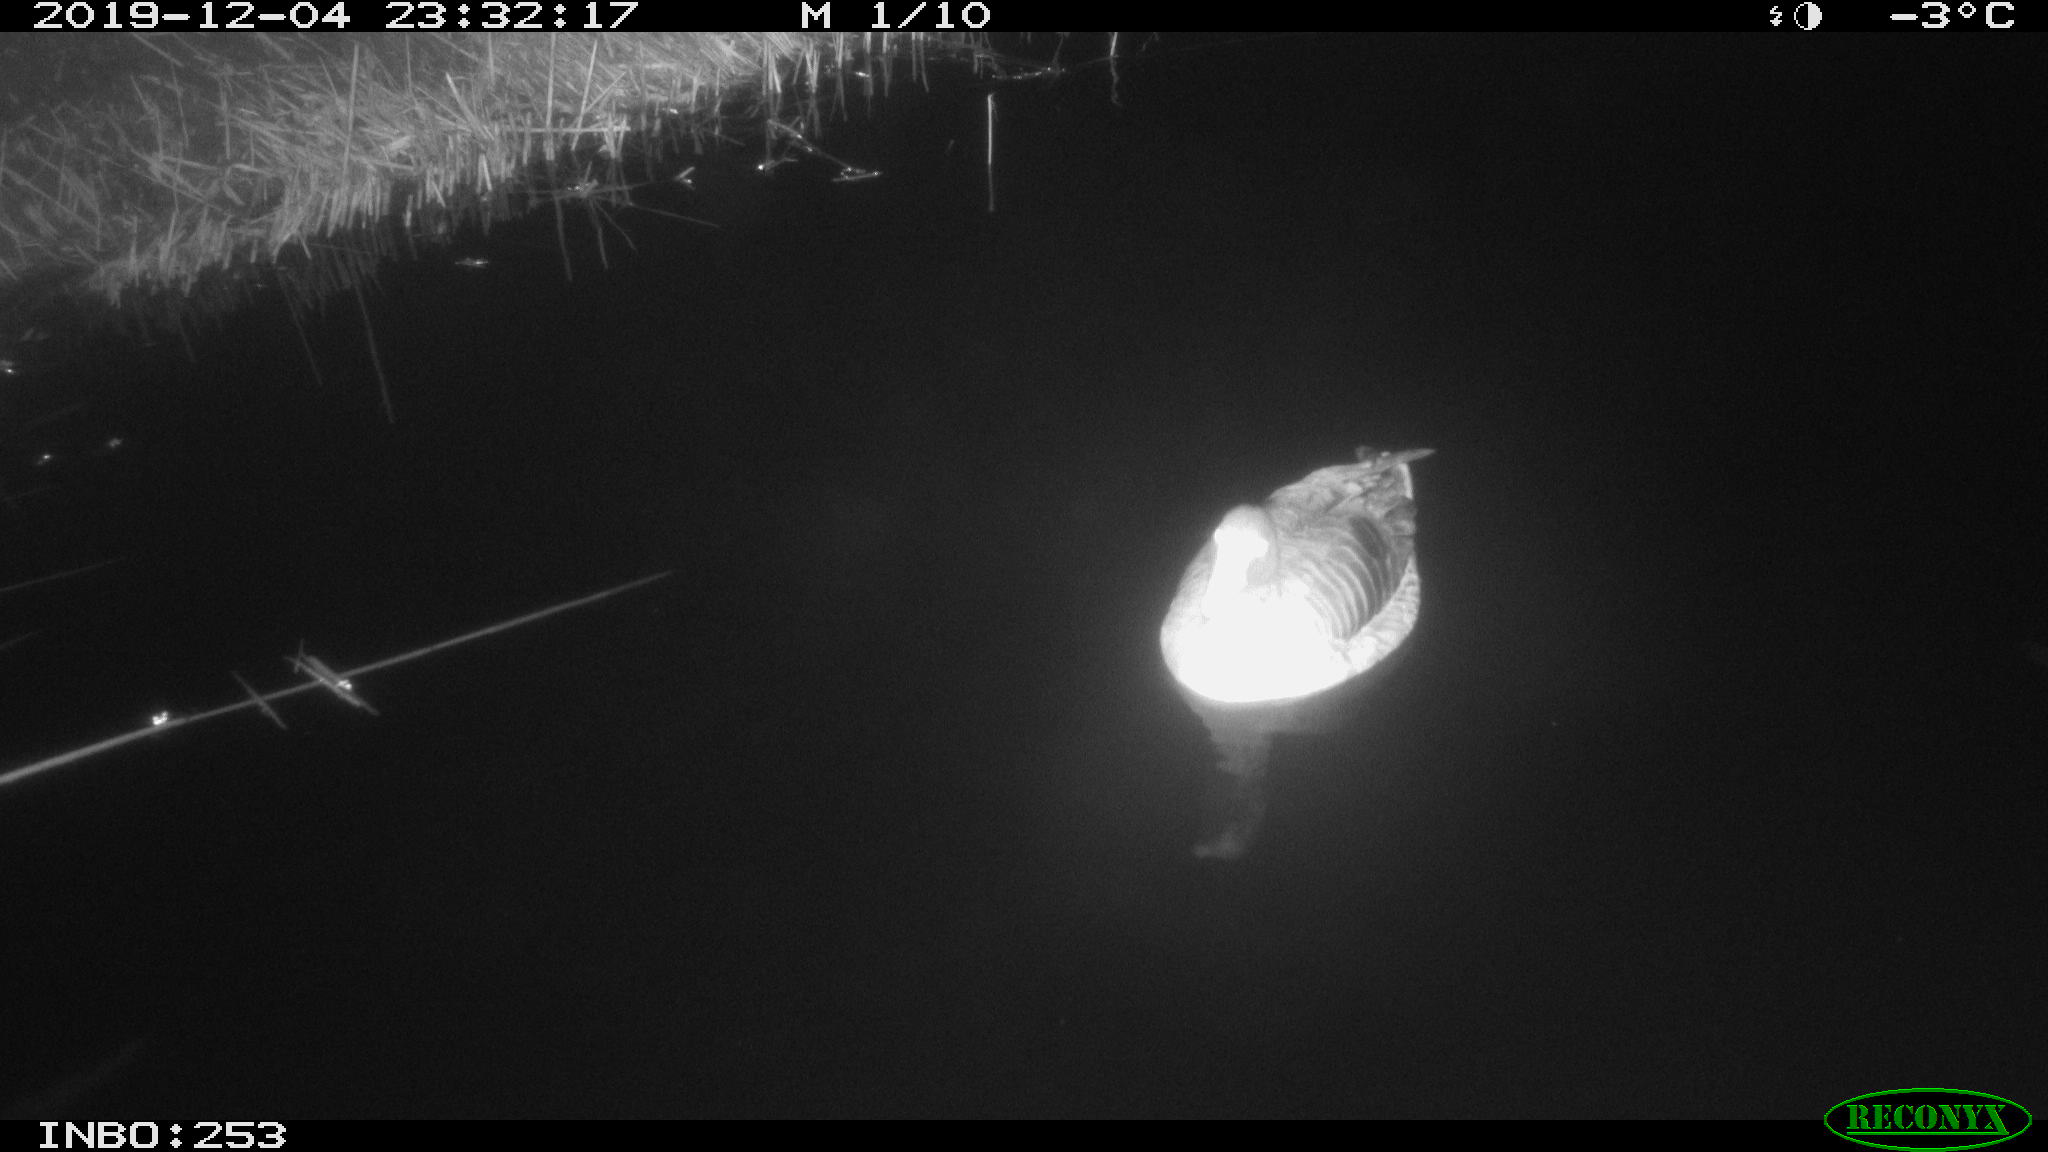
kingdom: Animalia
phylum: Chordata
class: Aves
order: Anseriformes
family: Anatidae
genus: Anser
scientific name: Anser anser
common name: Greylag goose
